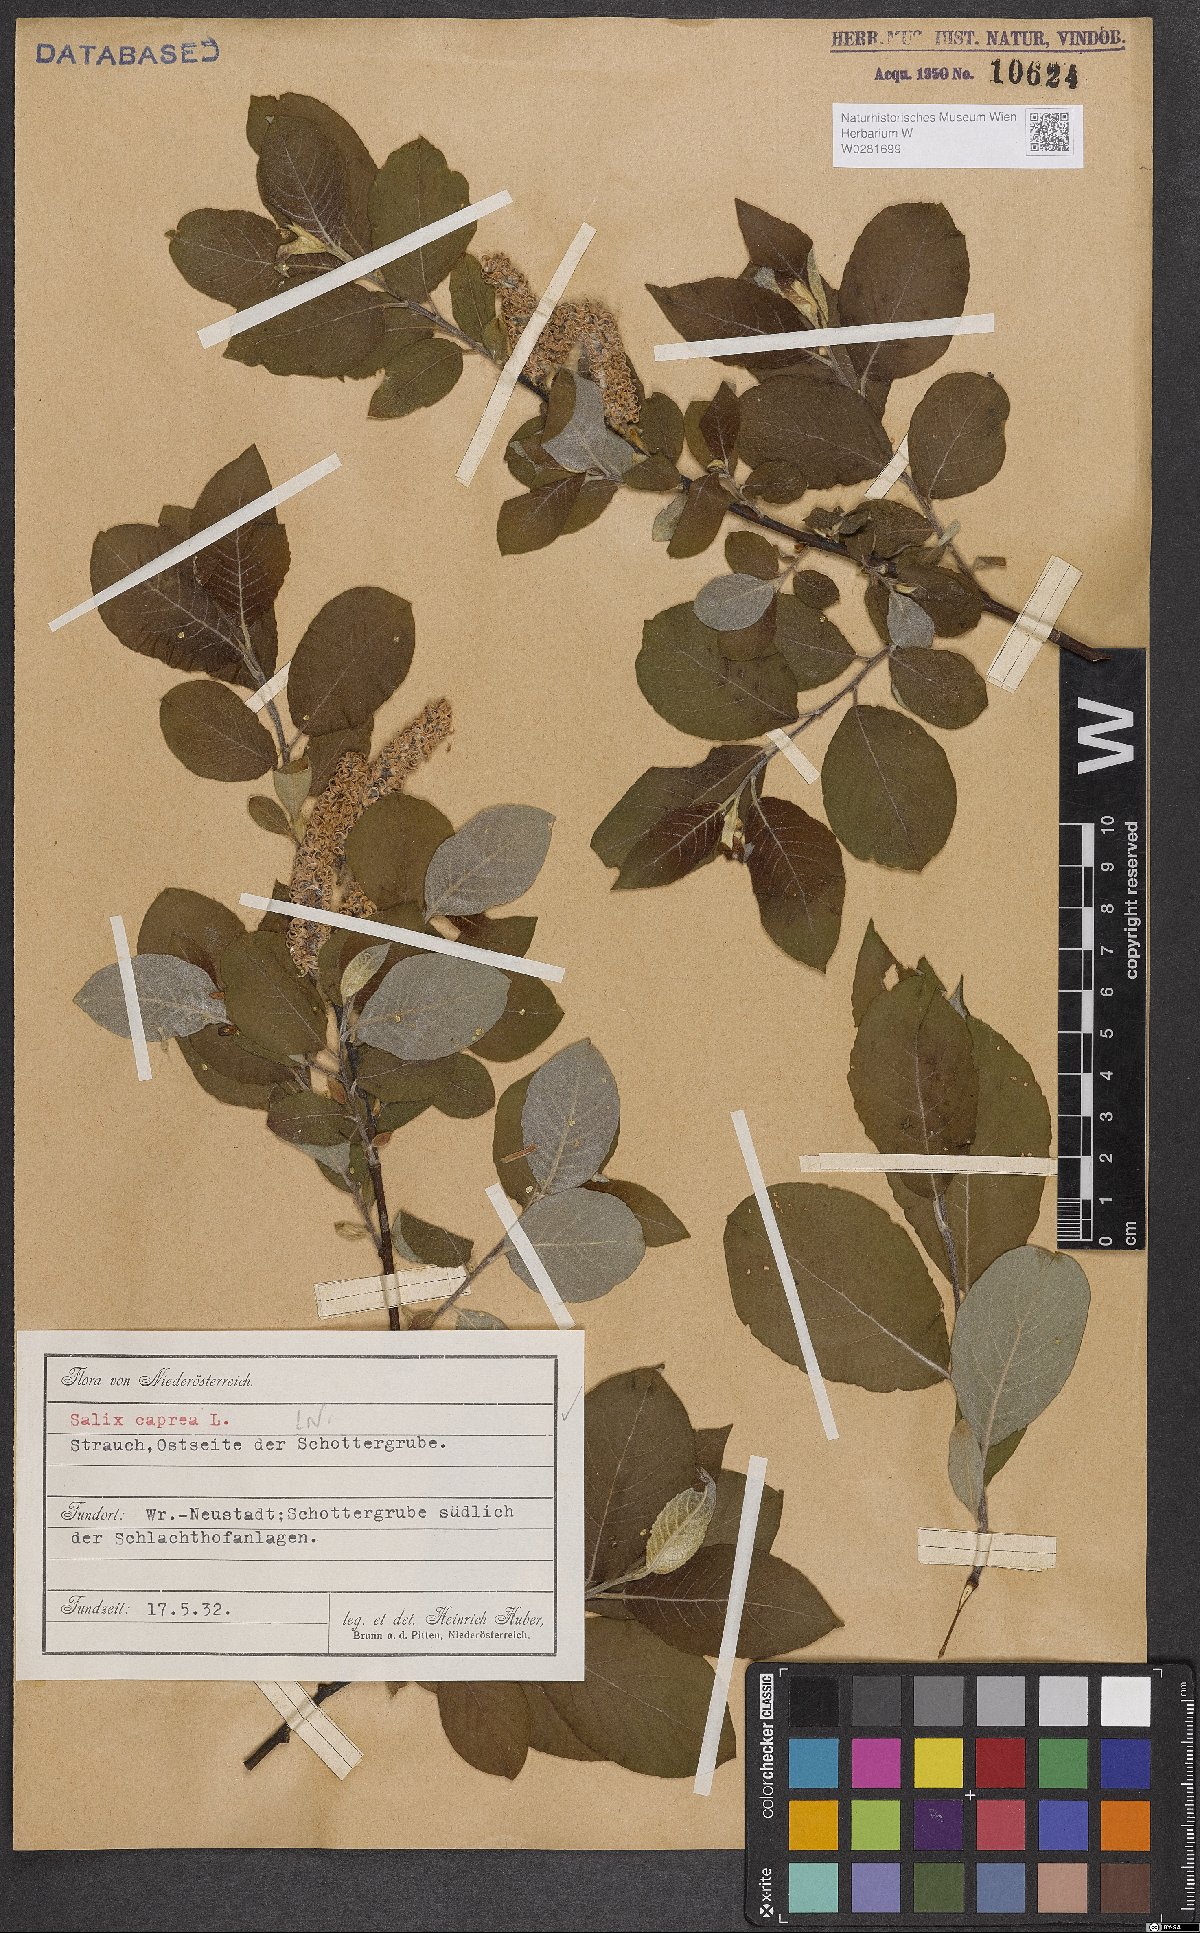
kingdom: Plantae
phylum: Tracheophyta
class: Magnoliopsida
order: Malpighiales
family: Salicaceae
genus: Salix
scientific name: Salix caprea
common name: Goat willow
